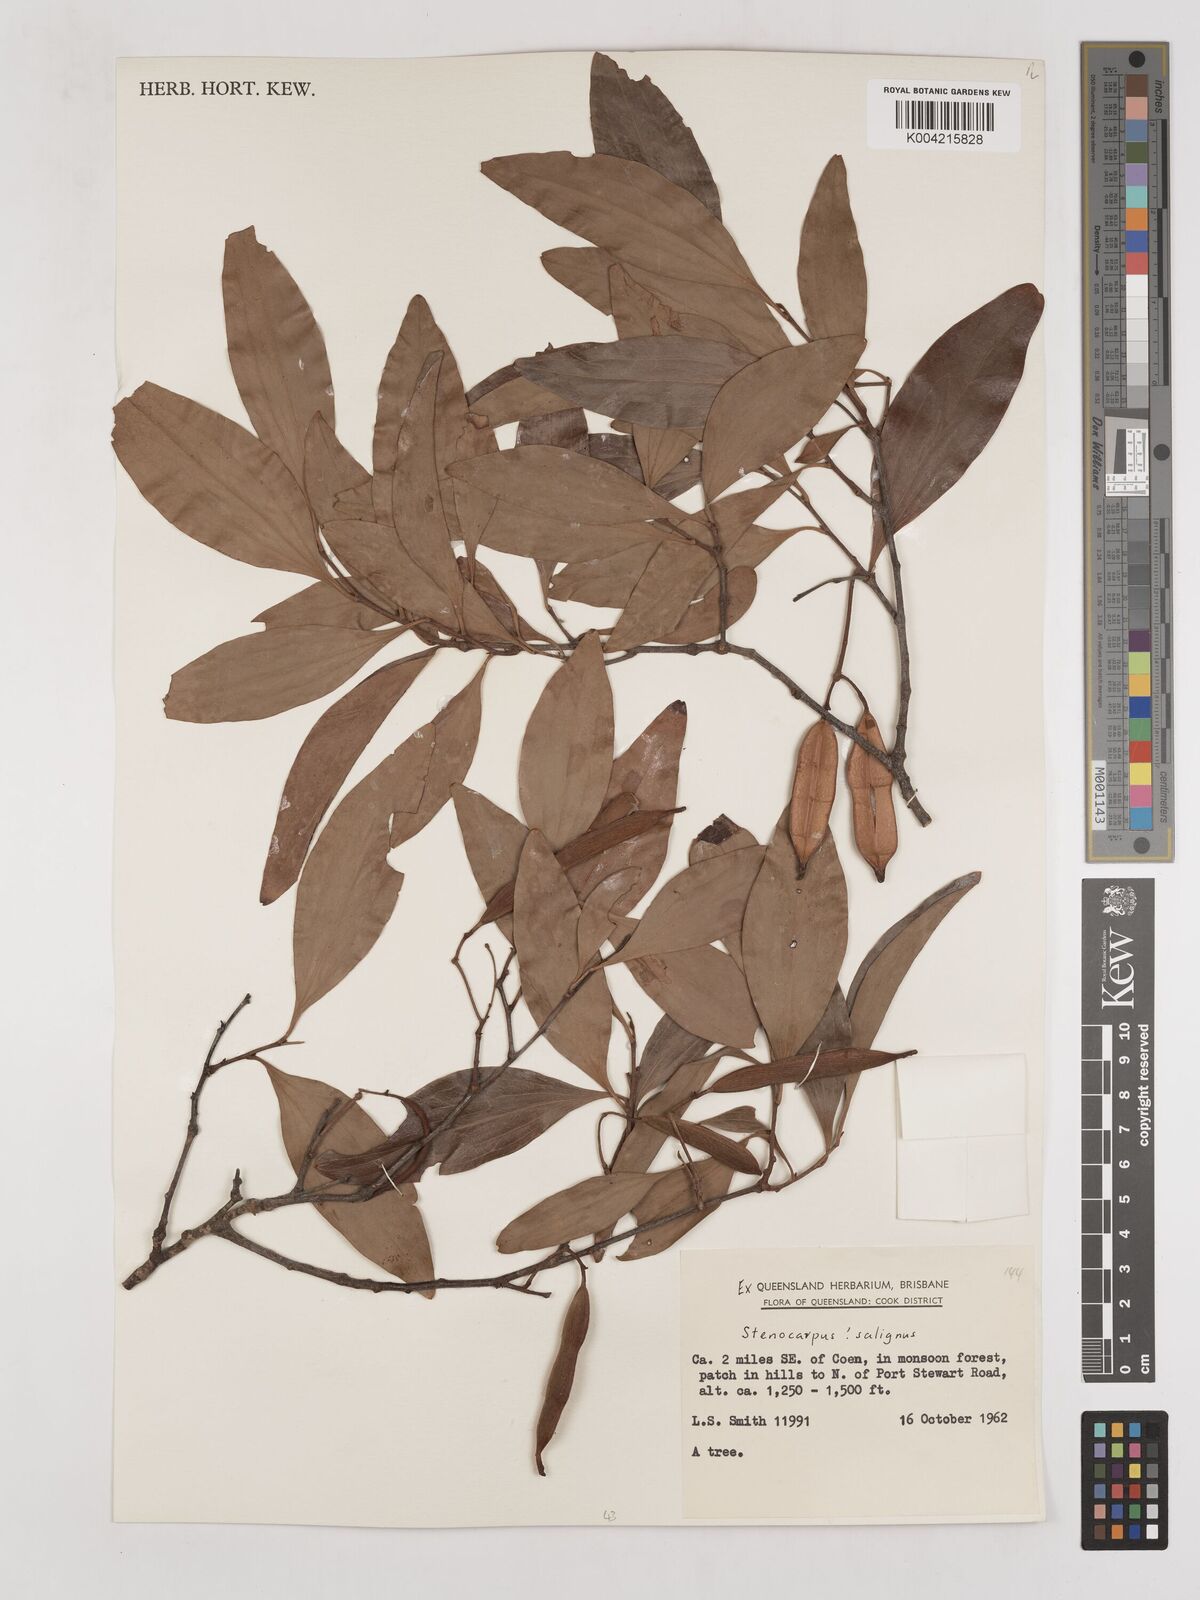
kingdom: Plantae
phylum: Tracheophyta
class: Magnoliopsida
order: Proteales
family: Proteaceae
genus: Stenocarpus
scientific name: Stenocarpus salignus
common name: Red silky-oak
